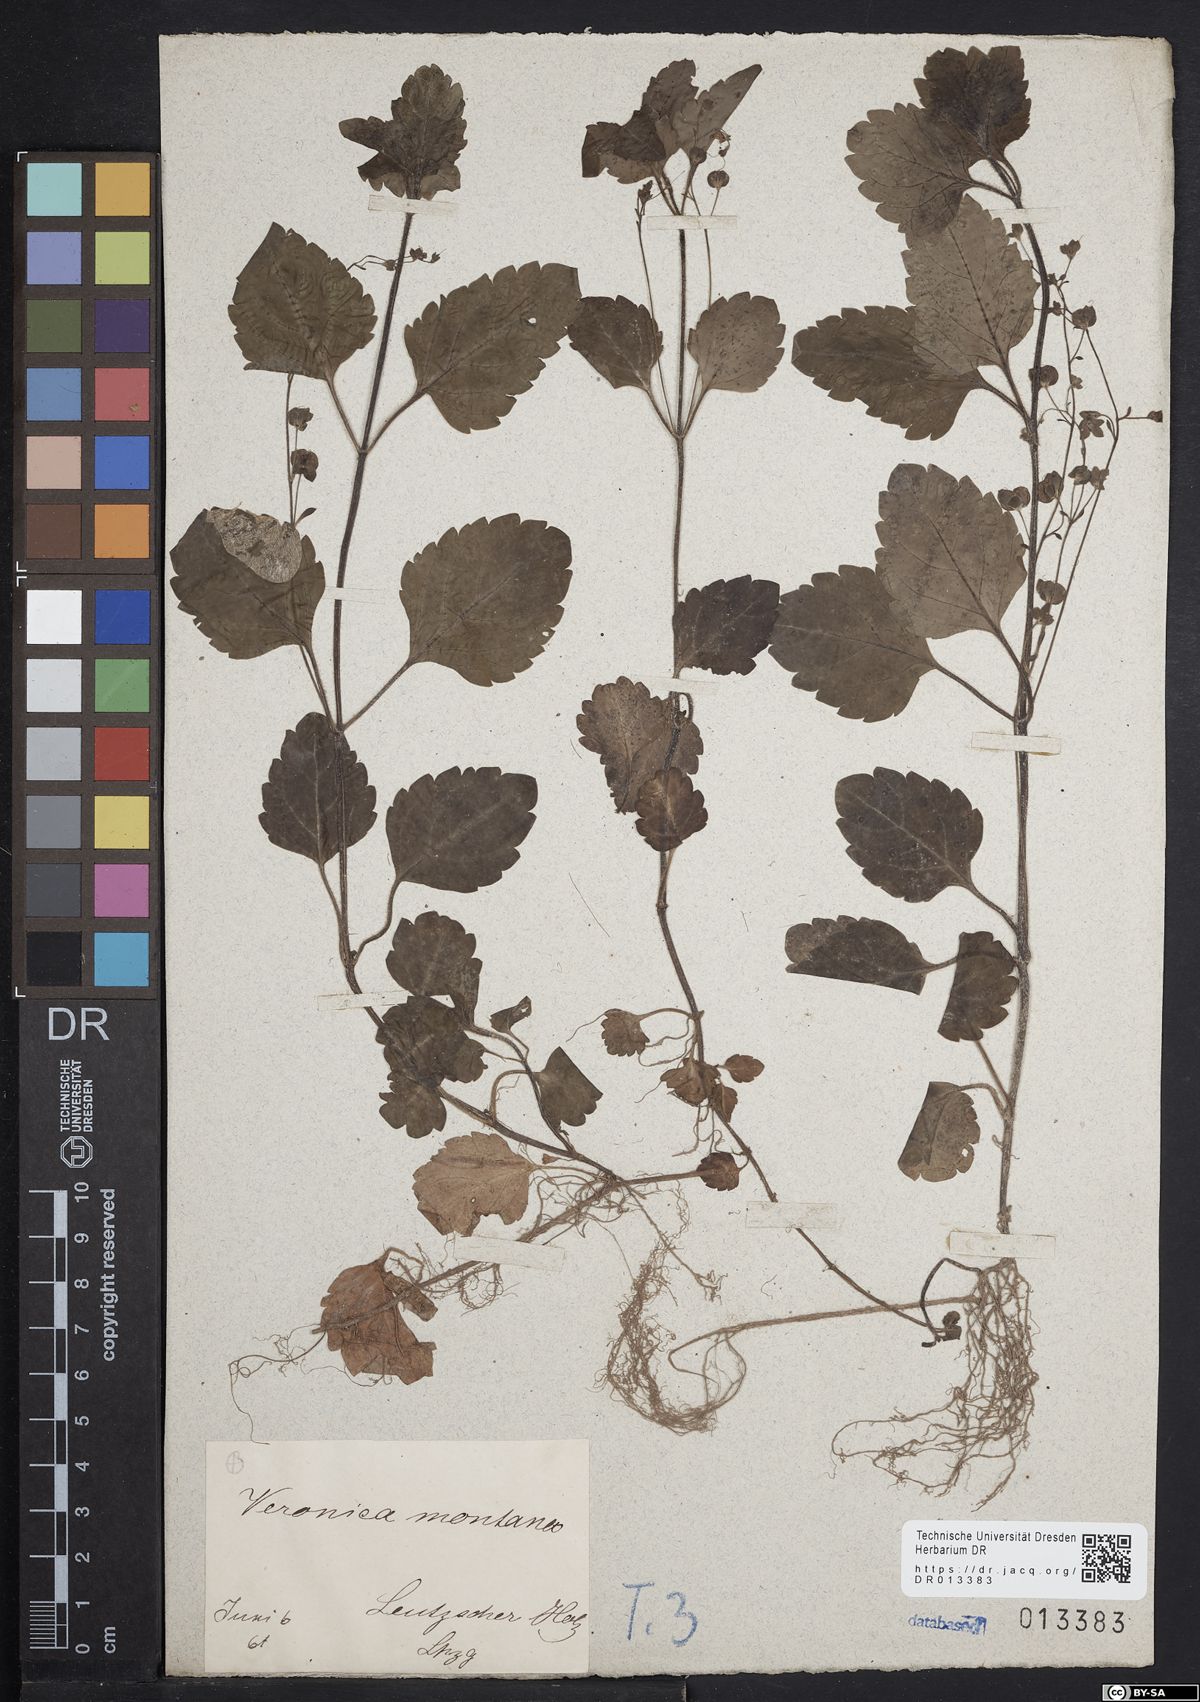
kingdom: Plantae
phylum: Tracheophyta
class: Magnoliopsida
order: Lamiales
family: Plantaginaceae
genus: Veronica
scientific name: Veronica montana
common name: Wood speedwell
